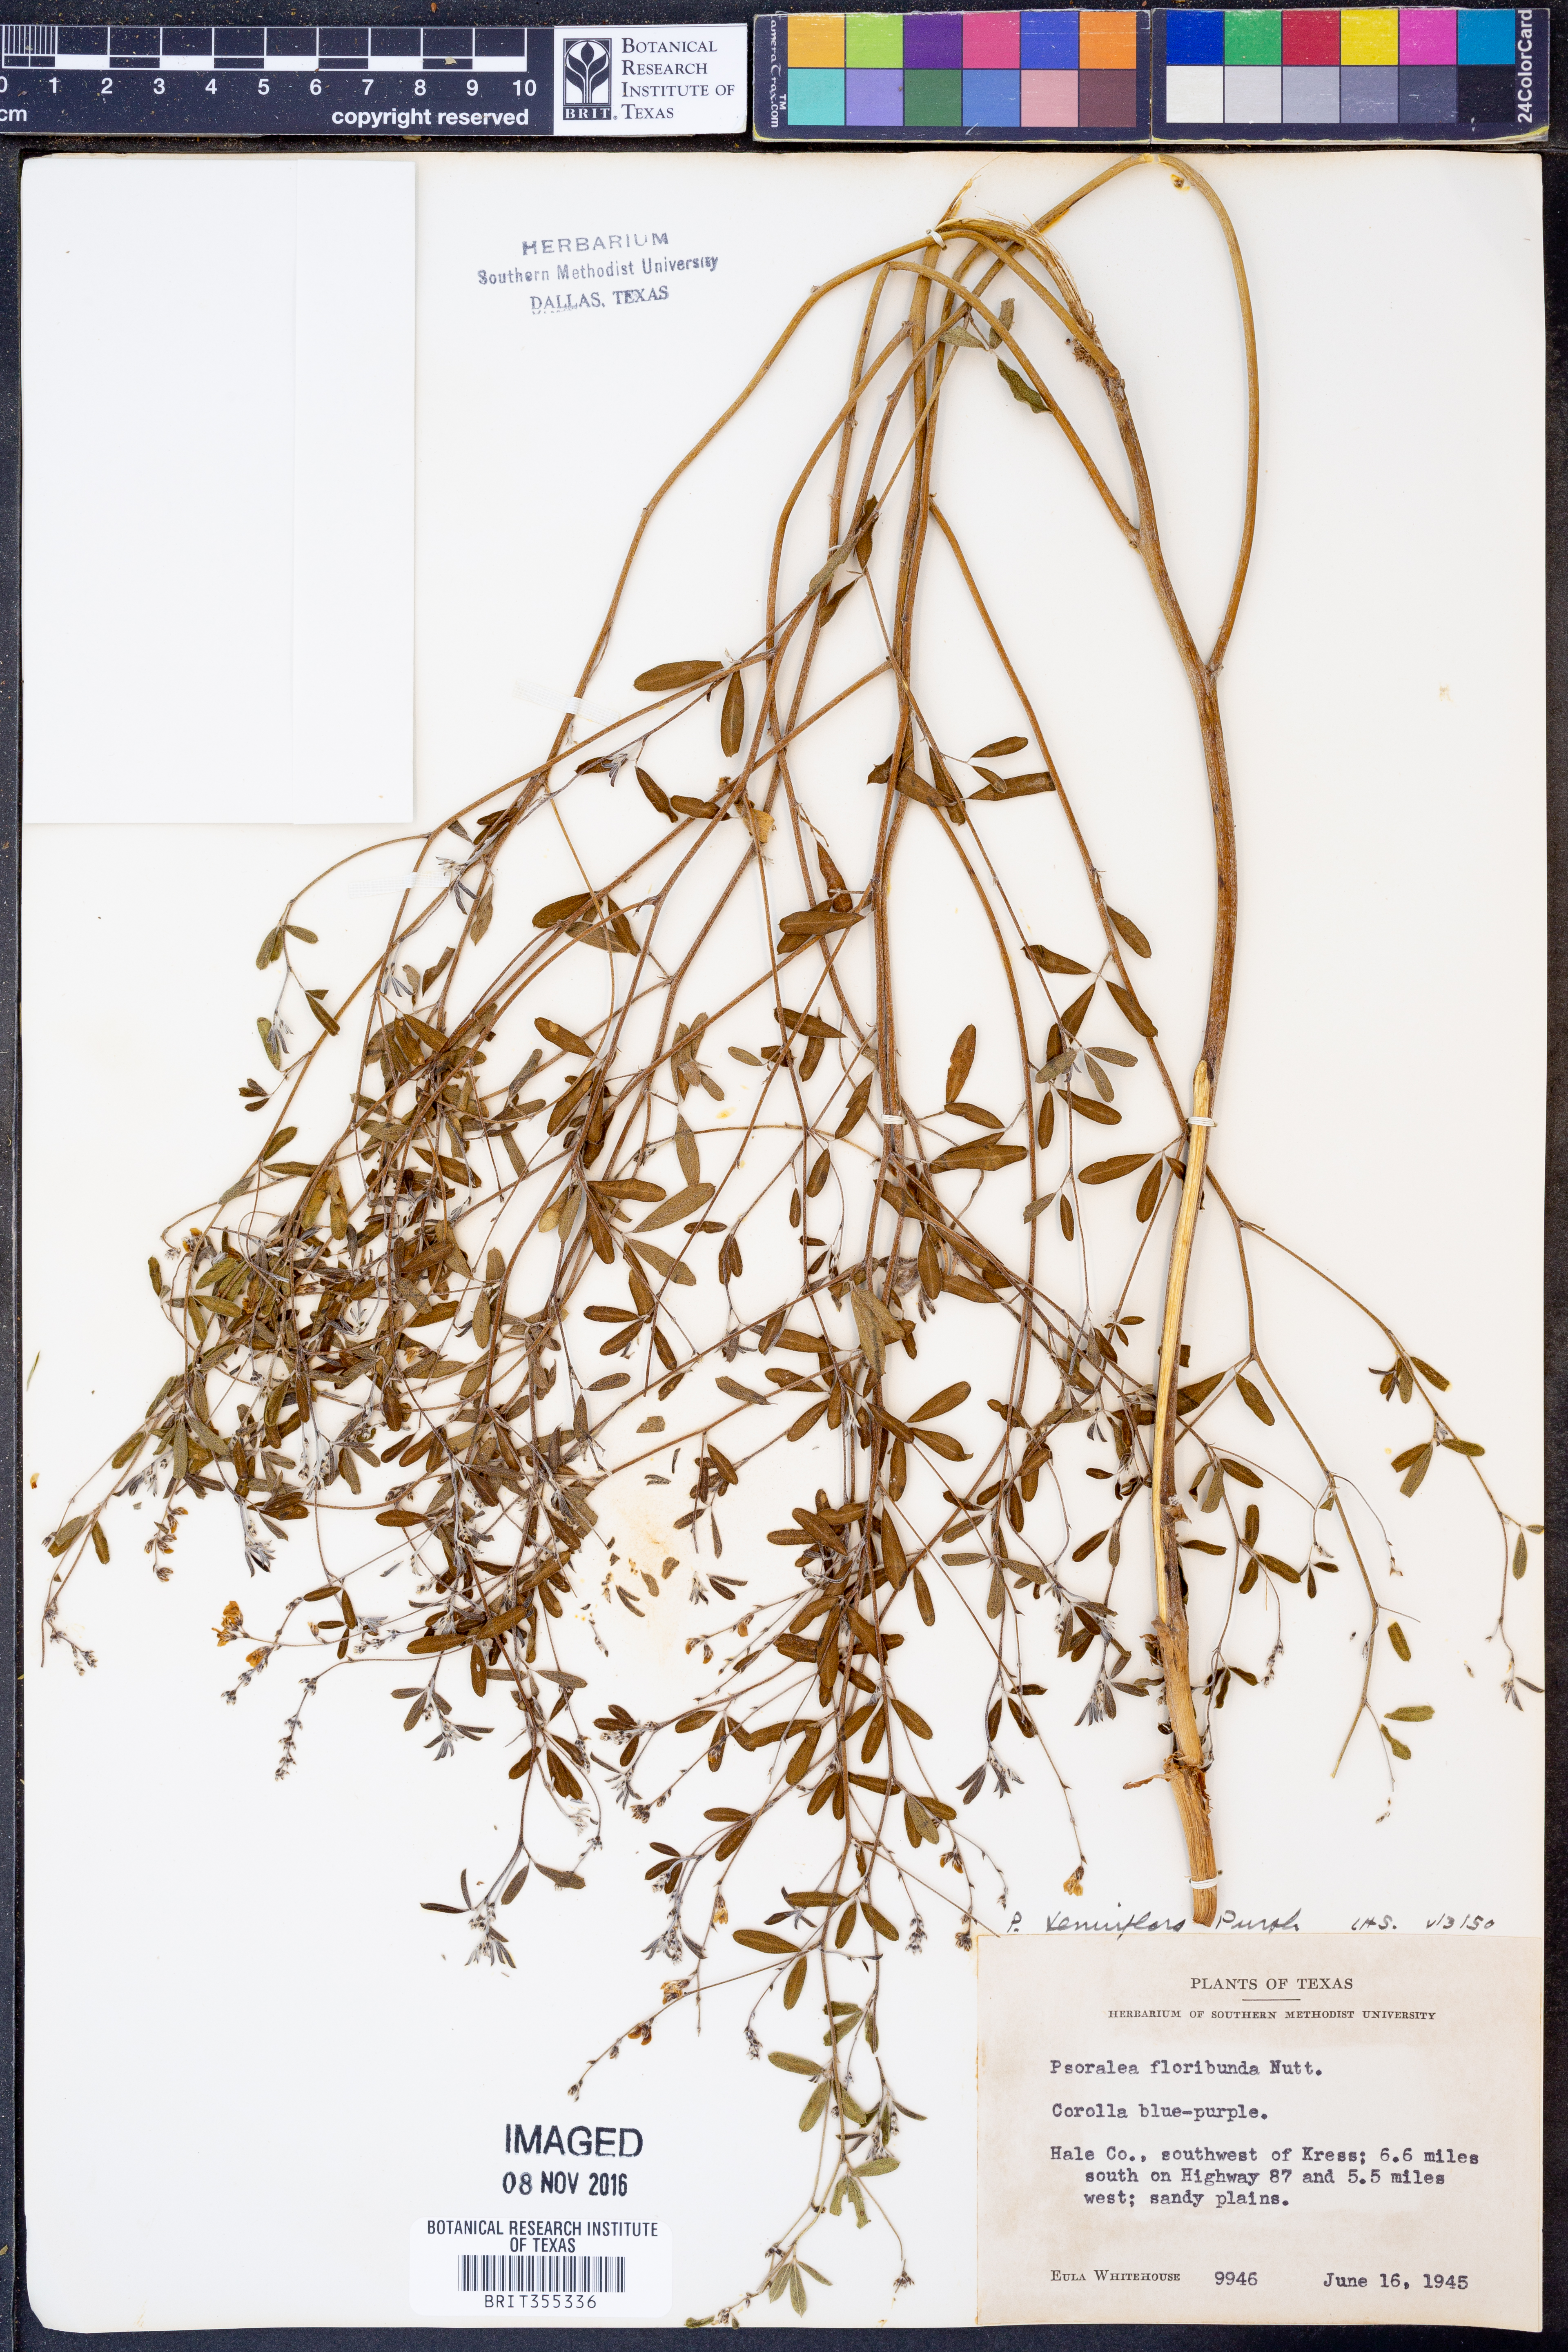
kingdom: Plantae
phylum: Tracheophyta
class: Magnoliopsida
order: Fabales
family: Fabaceae
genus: Pediomelum
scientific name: Pediomelum tenuiflorum
